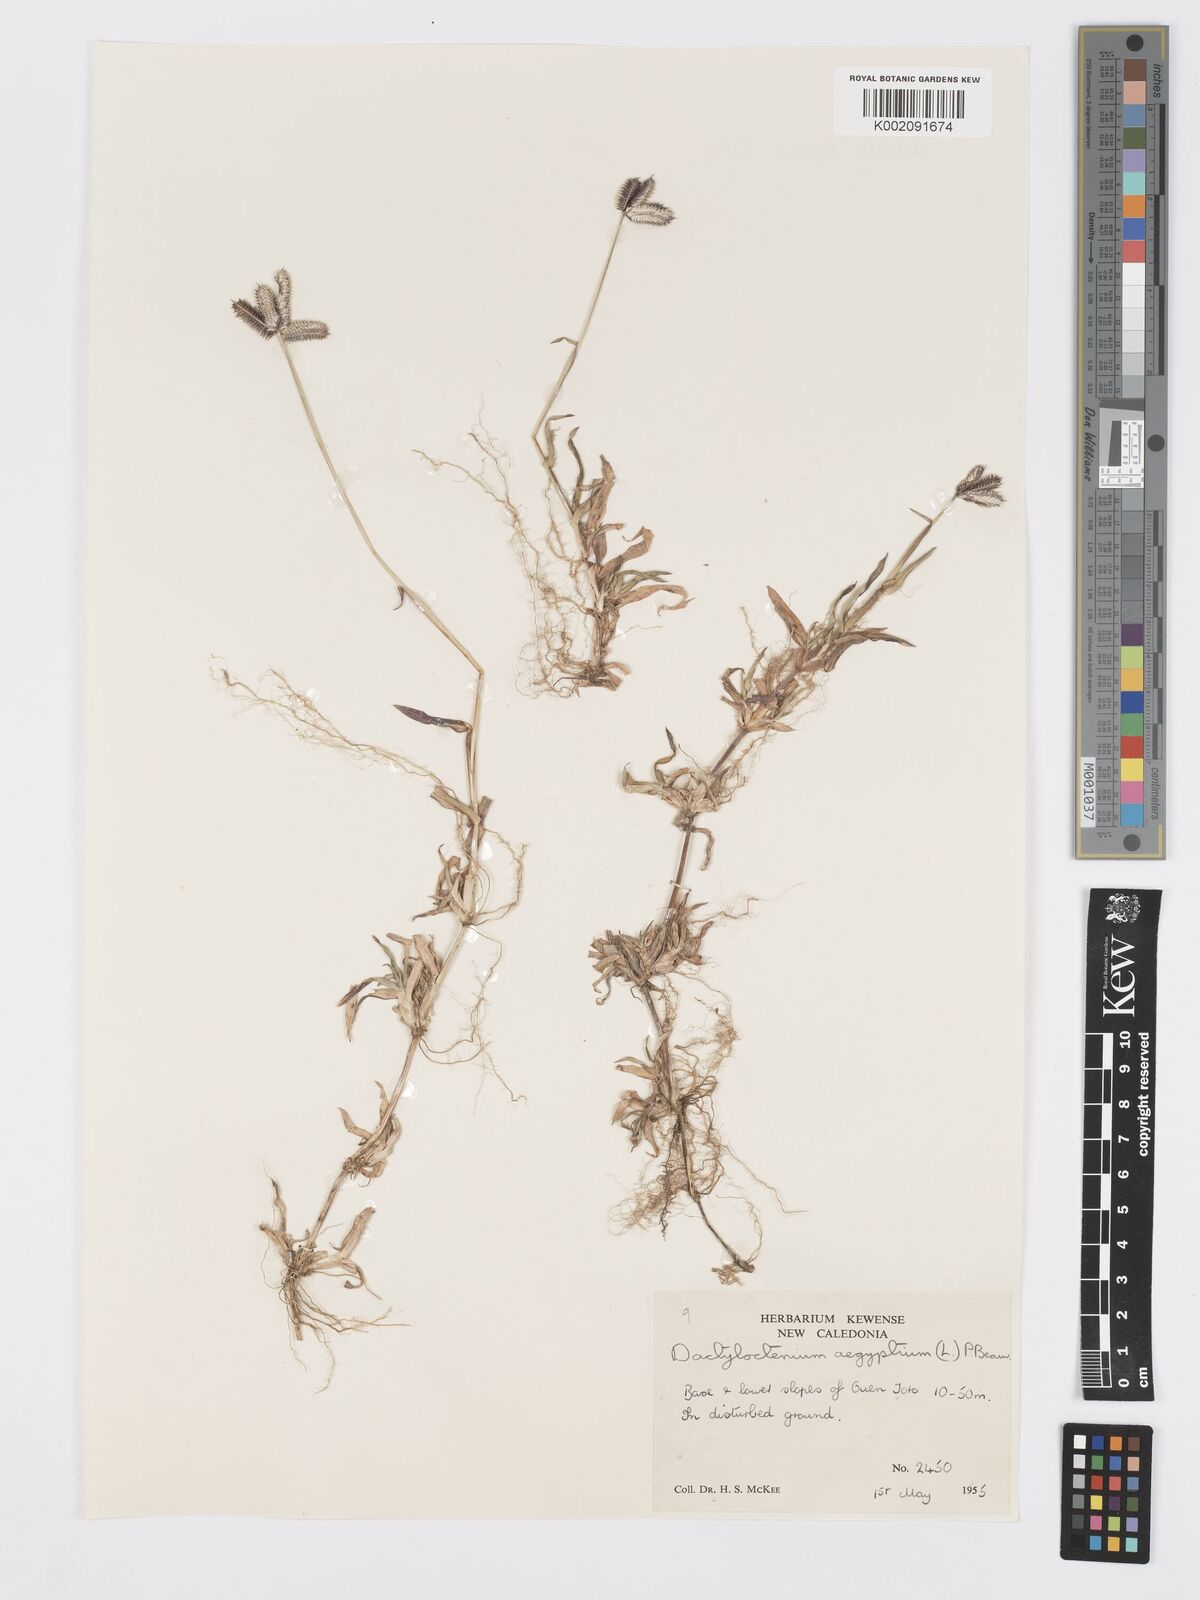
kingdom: Plantae
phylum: Tracheophyta
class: Liliopsida
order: Poales
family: Poaceae
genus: Dactyloctenium
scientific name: Dactyloctenium aegyptium
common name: Egyptian grass
